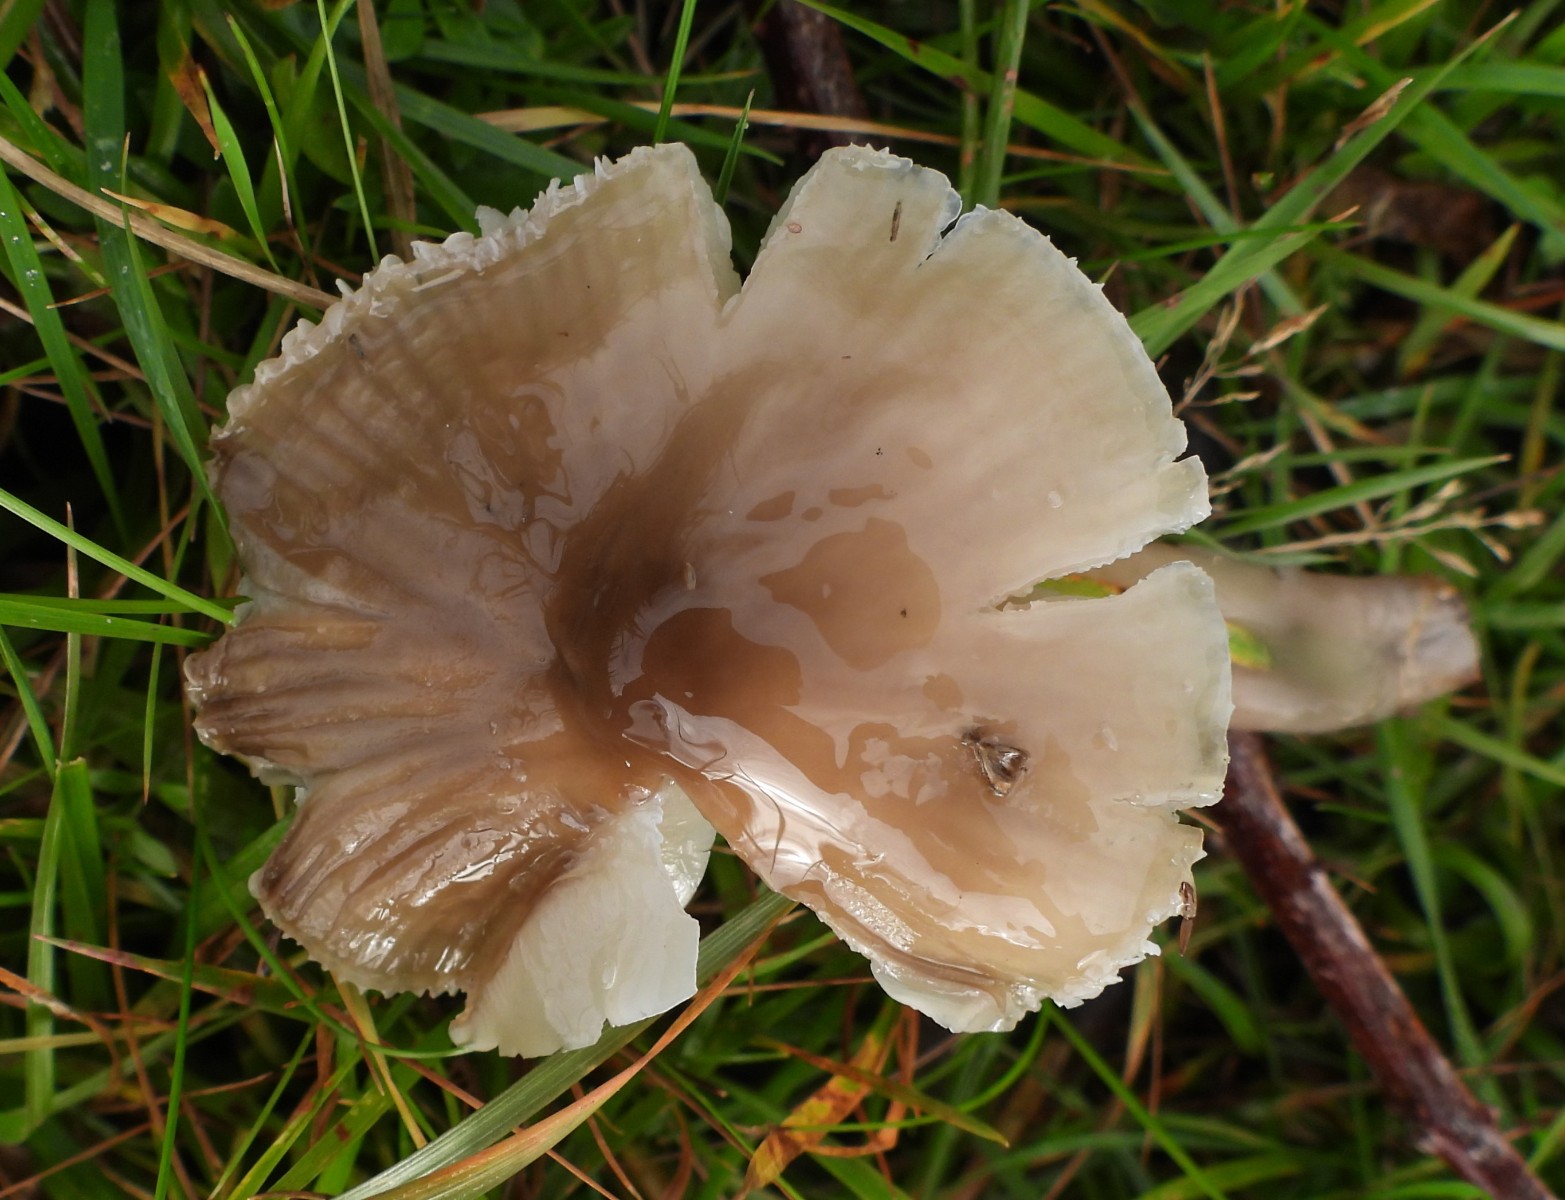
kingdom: Fungi
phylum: Basidiomycota
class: Agaricomycetes
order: Agaricales
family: Hygrophoraceae
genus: Gliophorus
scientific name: Gliophorus irrigatus
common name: slimet vokshat
